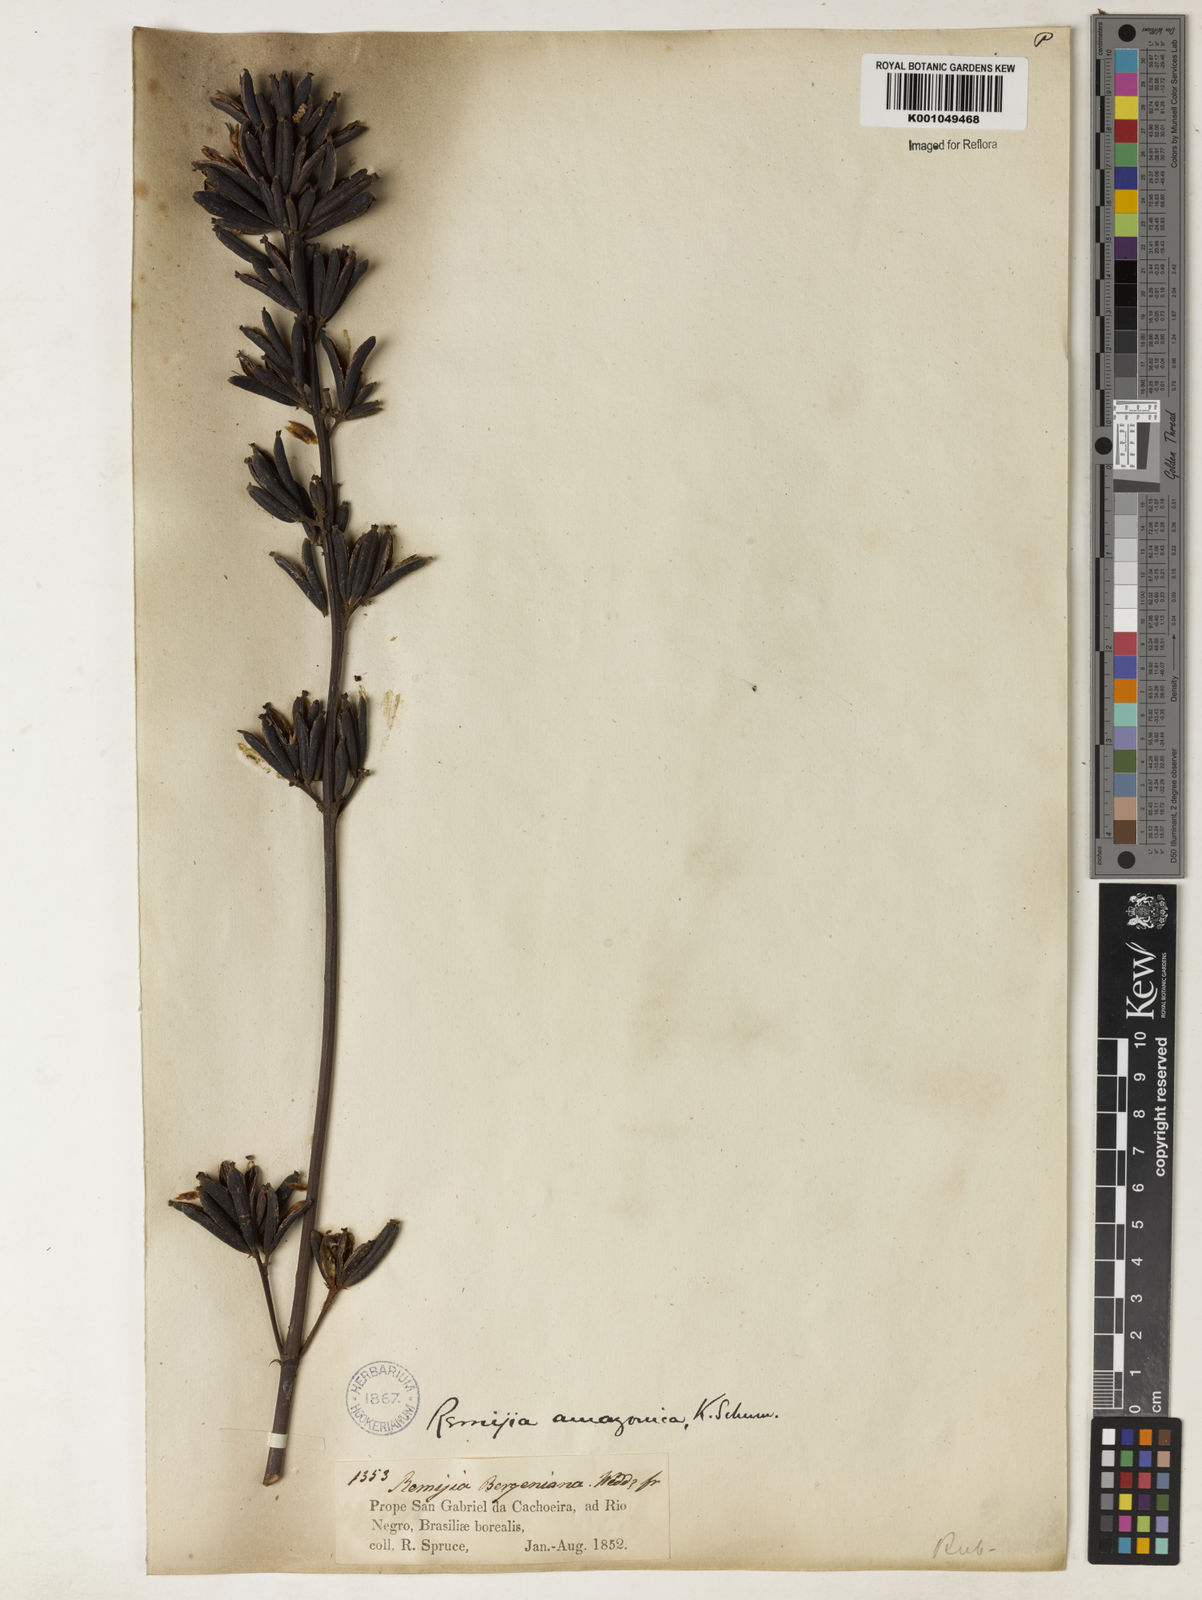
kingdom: Plantae
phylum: Tracheophyta
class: Magnoliopsida
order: Gentianales
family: Rubiaceae
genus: Remijia
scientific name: Remijia amazonica
